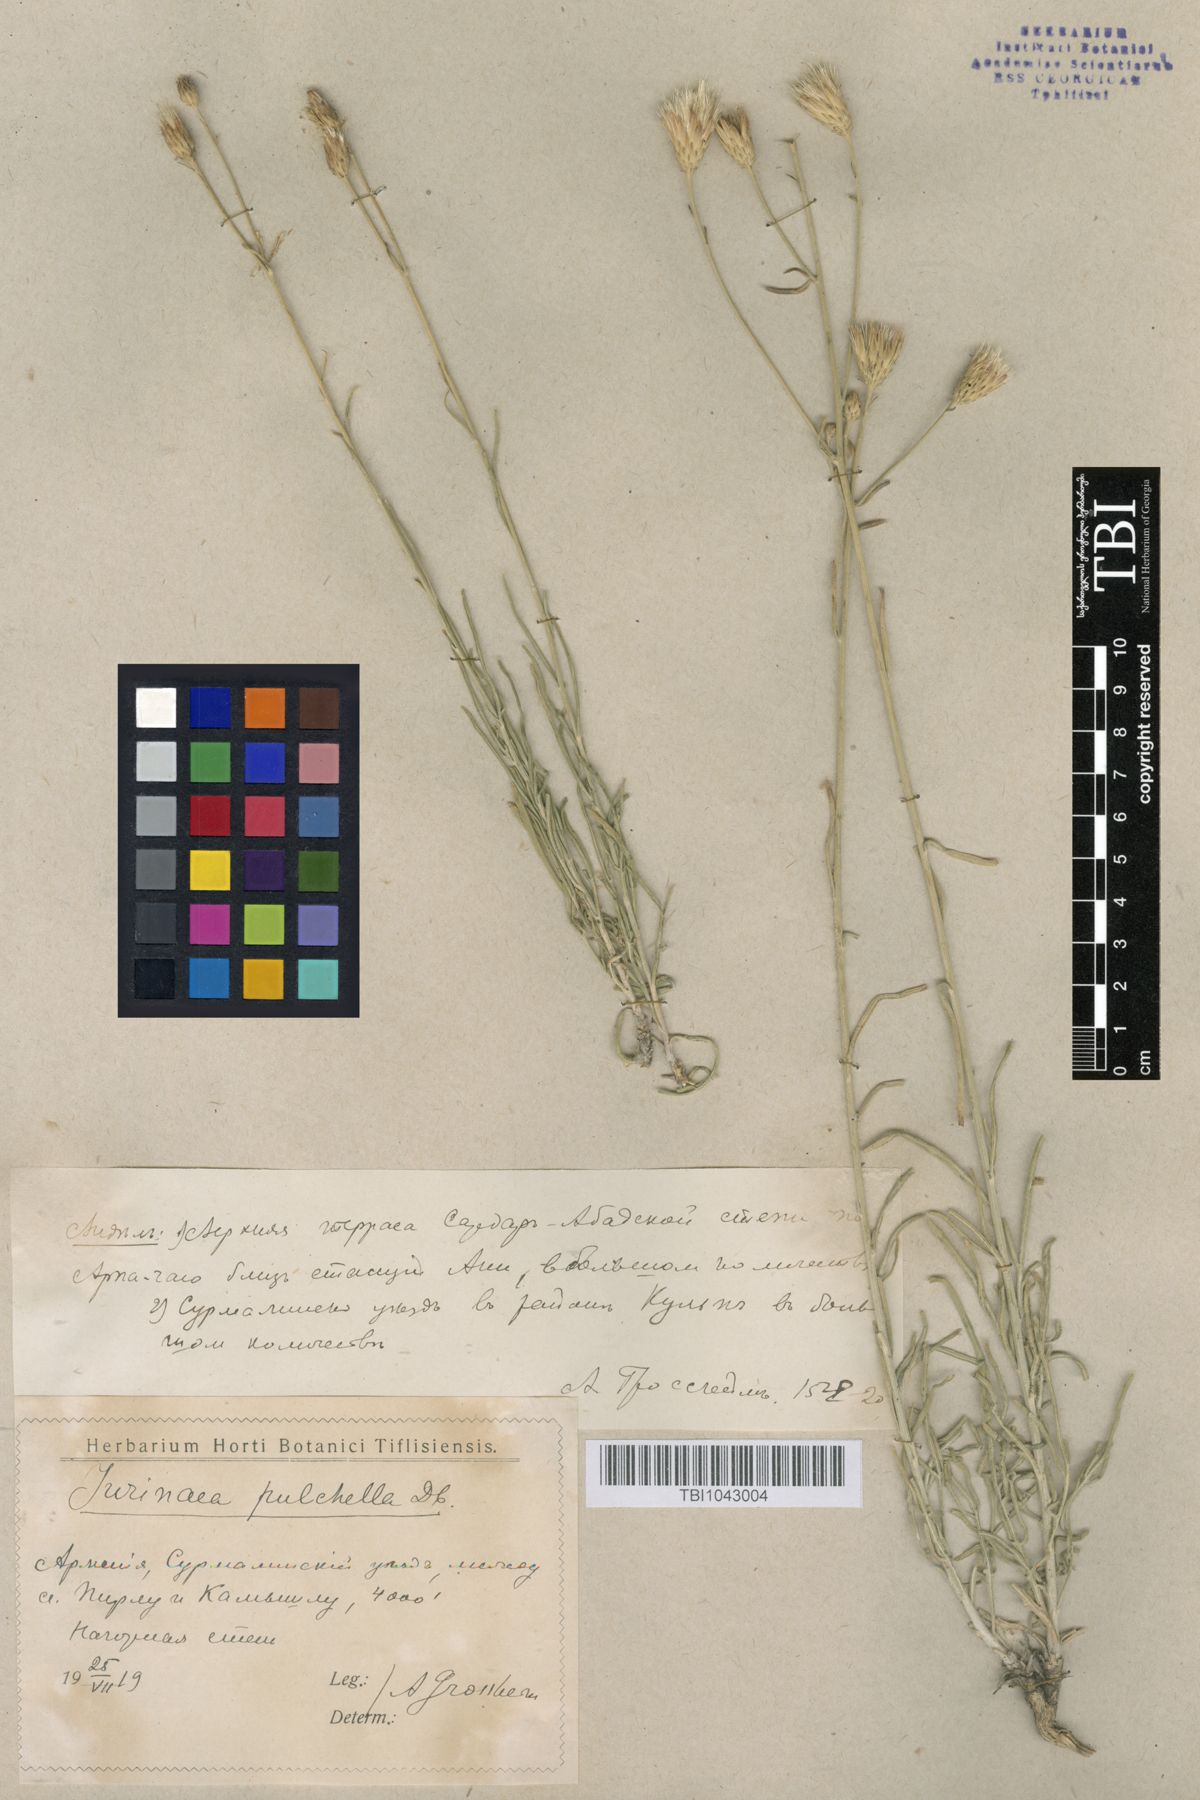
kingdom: Plantae
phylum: Tracheophyta
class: Magnoliopsida
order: Asterales
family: Asteraceae
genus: Jurinea
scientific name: Jurinea pulchella
